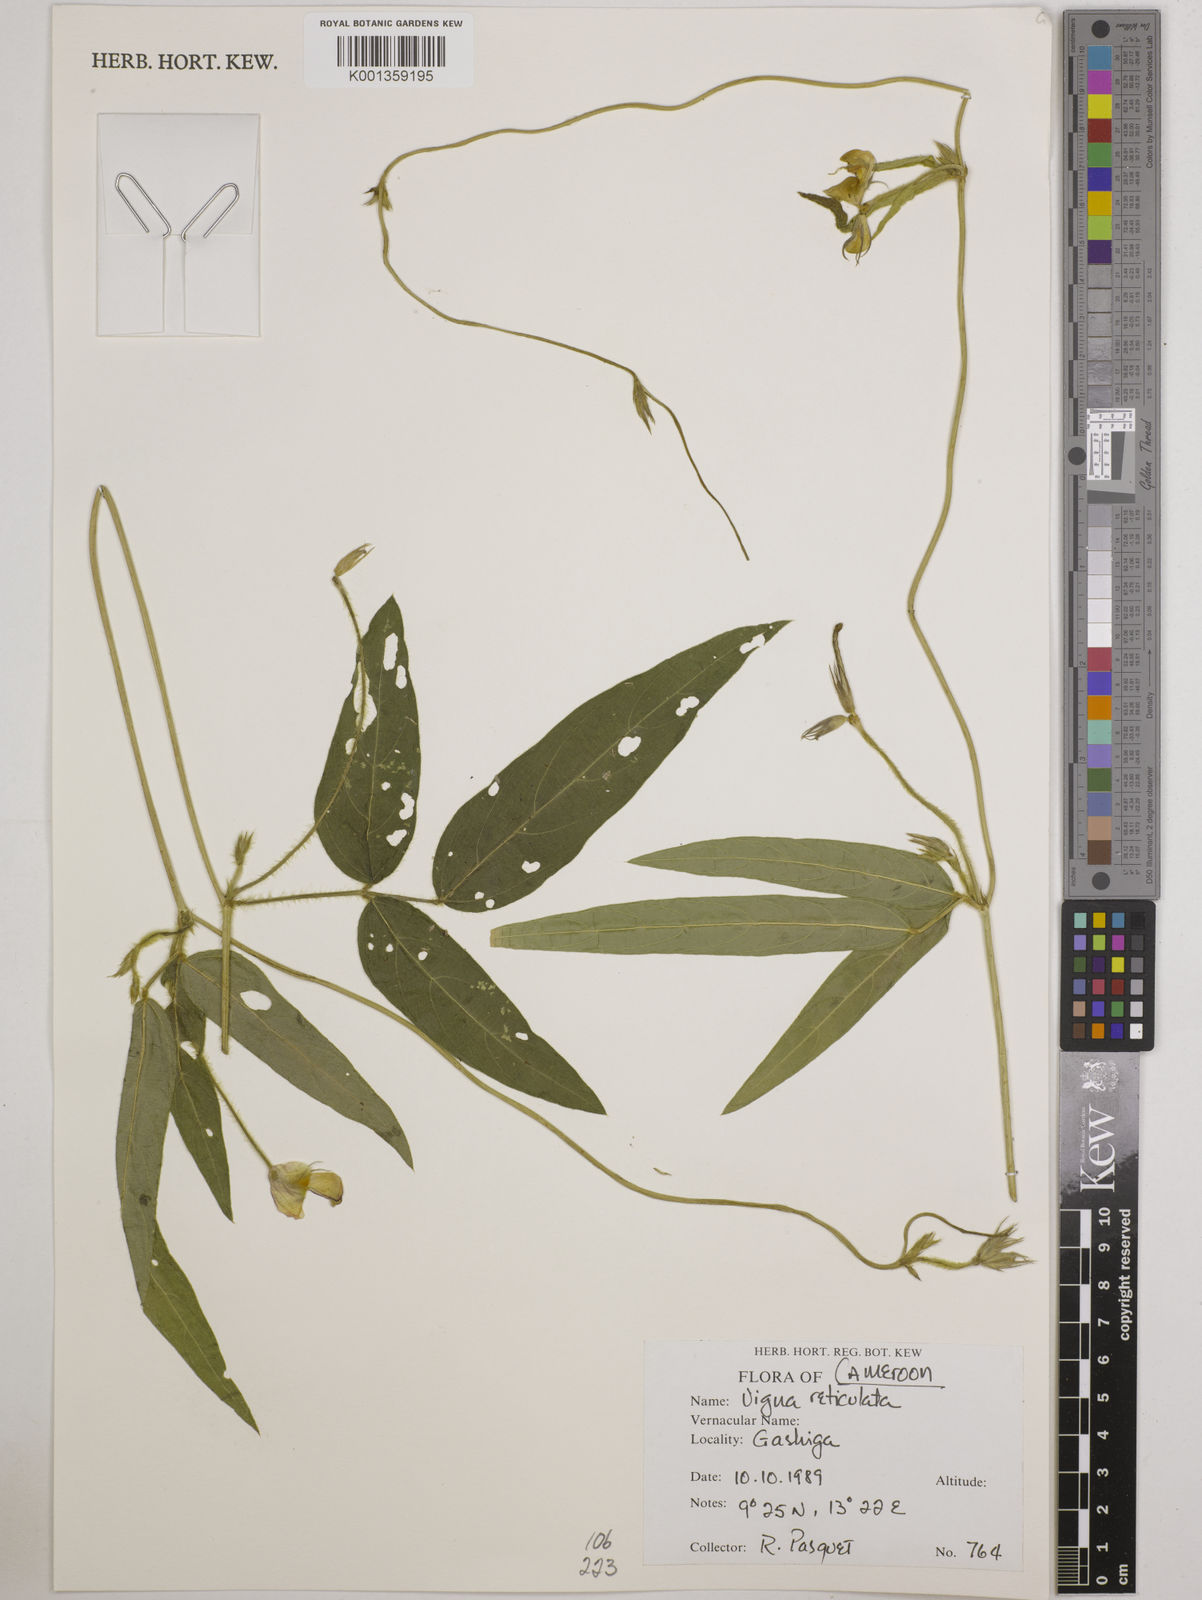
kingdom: Plantae
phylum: Tracheophyta
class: Magnoliopsida
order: Fabales
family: Fabaceae
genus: Vigna
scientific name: Vigna reticulata
